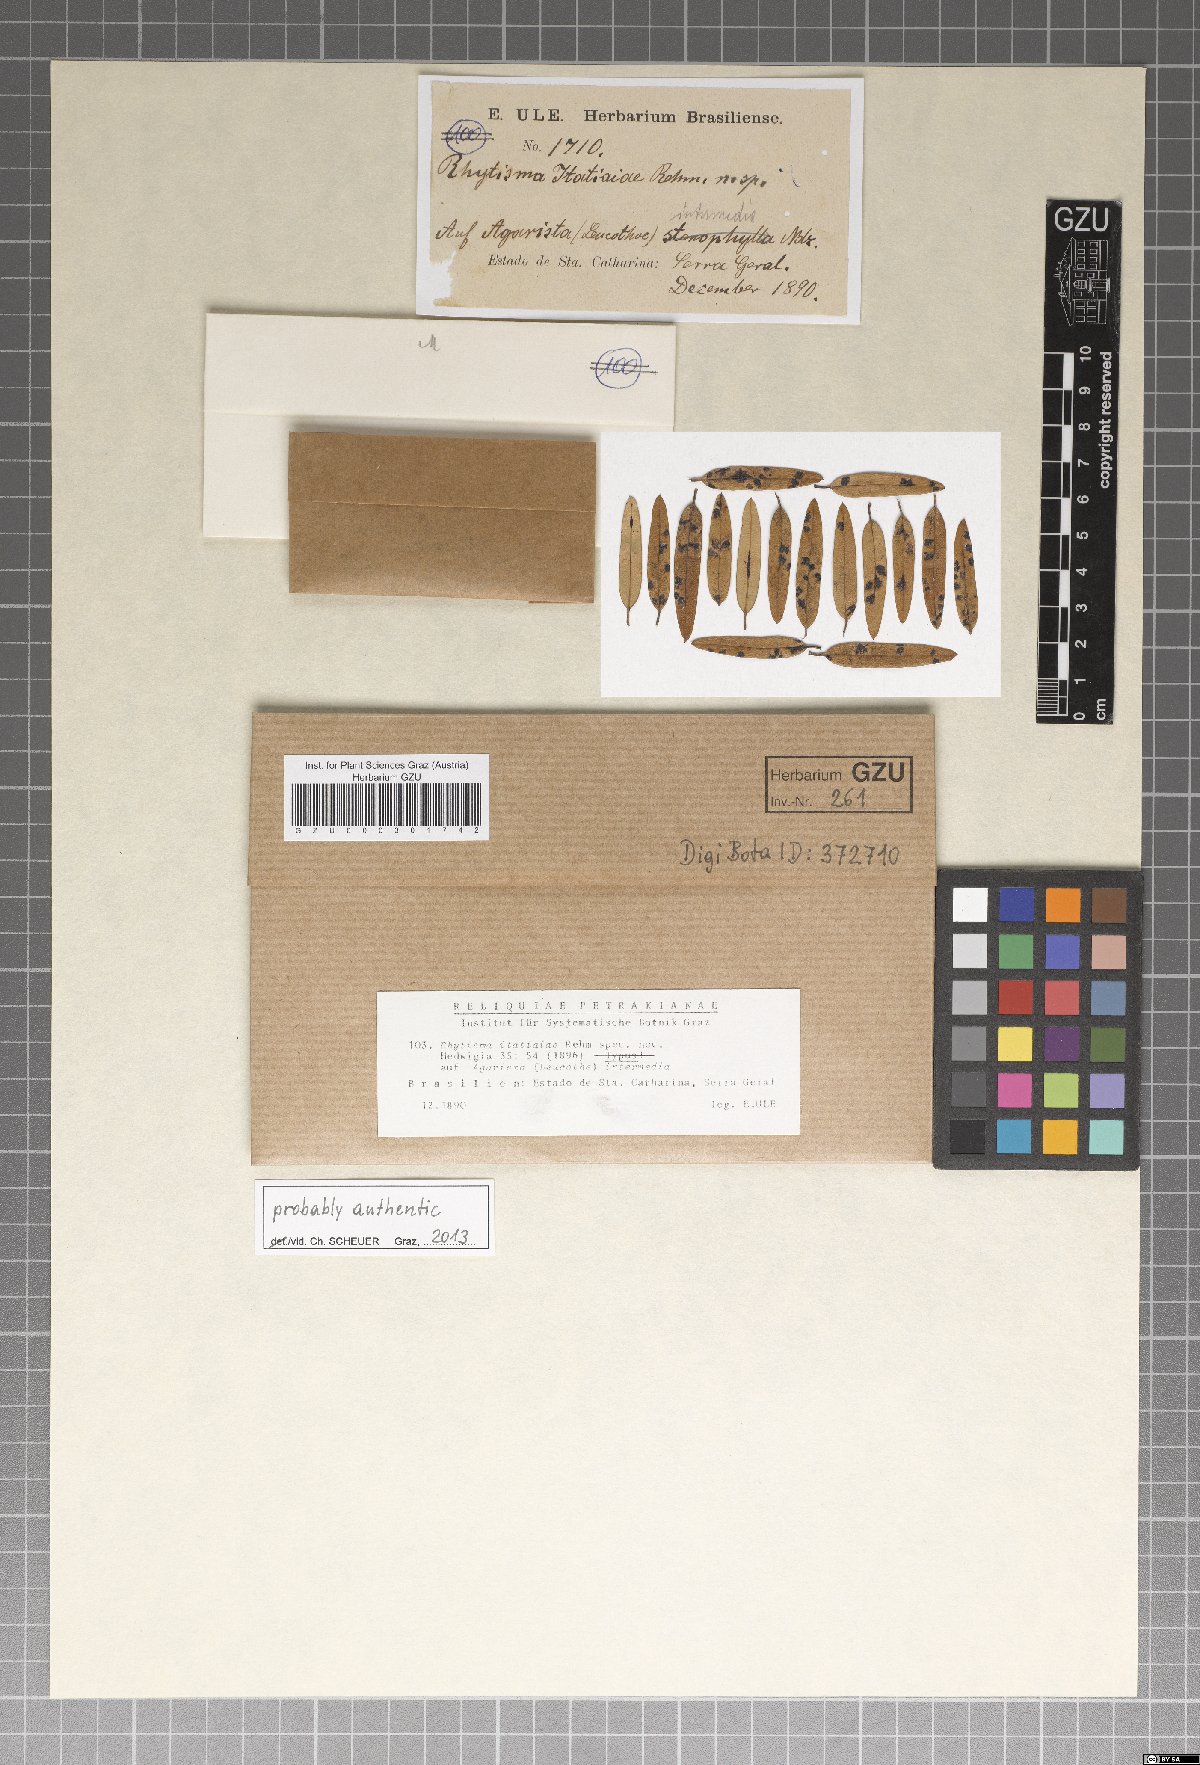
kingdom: Fungi
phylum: Ascomycota
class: Leotiomycetes
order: Rhytismatales
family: Rhytismataceae
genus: Rhytisma
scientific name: Rhytisma itatiaiae
